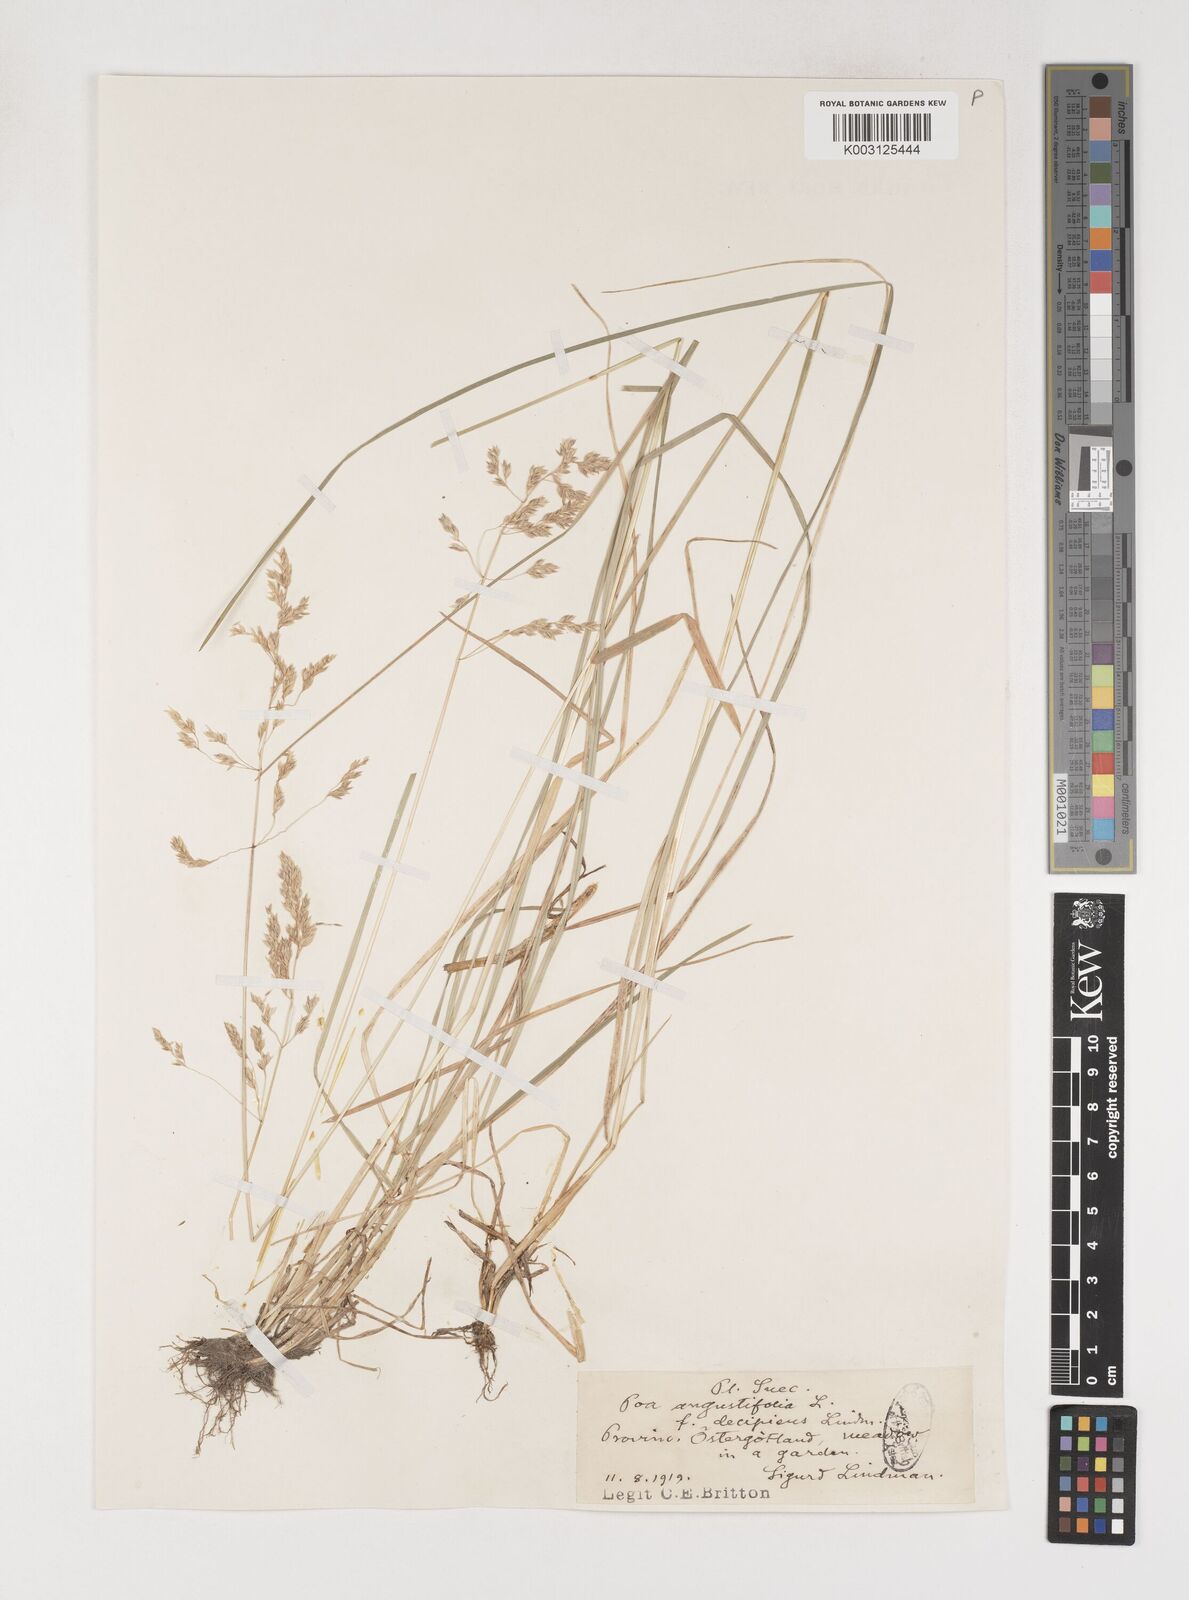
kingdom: Plantae
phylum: Tracheophyta
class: Liliopsida
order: Poales
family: Poaceae
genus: Poa
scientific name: Poa angustifolia
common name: Narrow-leaved meadow-grass
